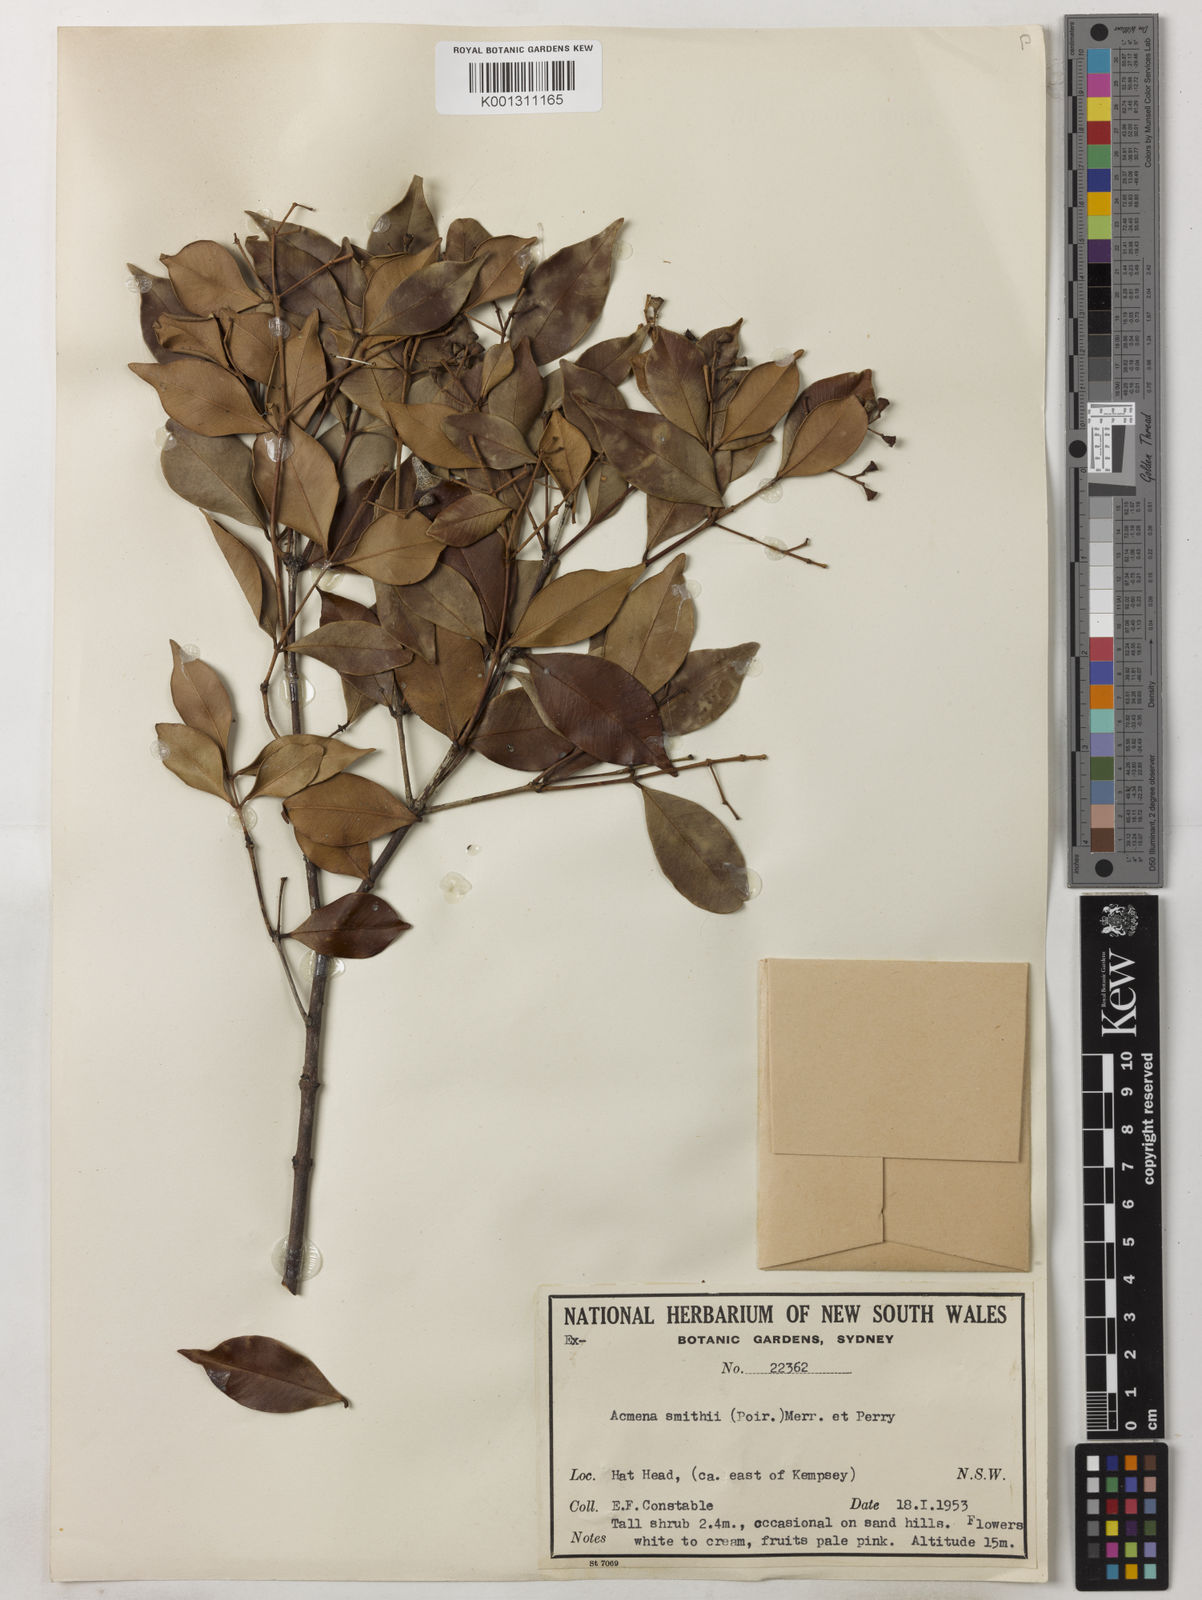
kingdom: Plantae
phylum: Tracheophyta
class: Magnoliopsida
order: Myrtales
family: Myrtaceae
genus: Syzygium
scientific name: Syzygium smithii
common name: Lilly-pilly
